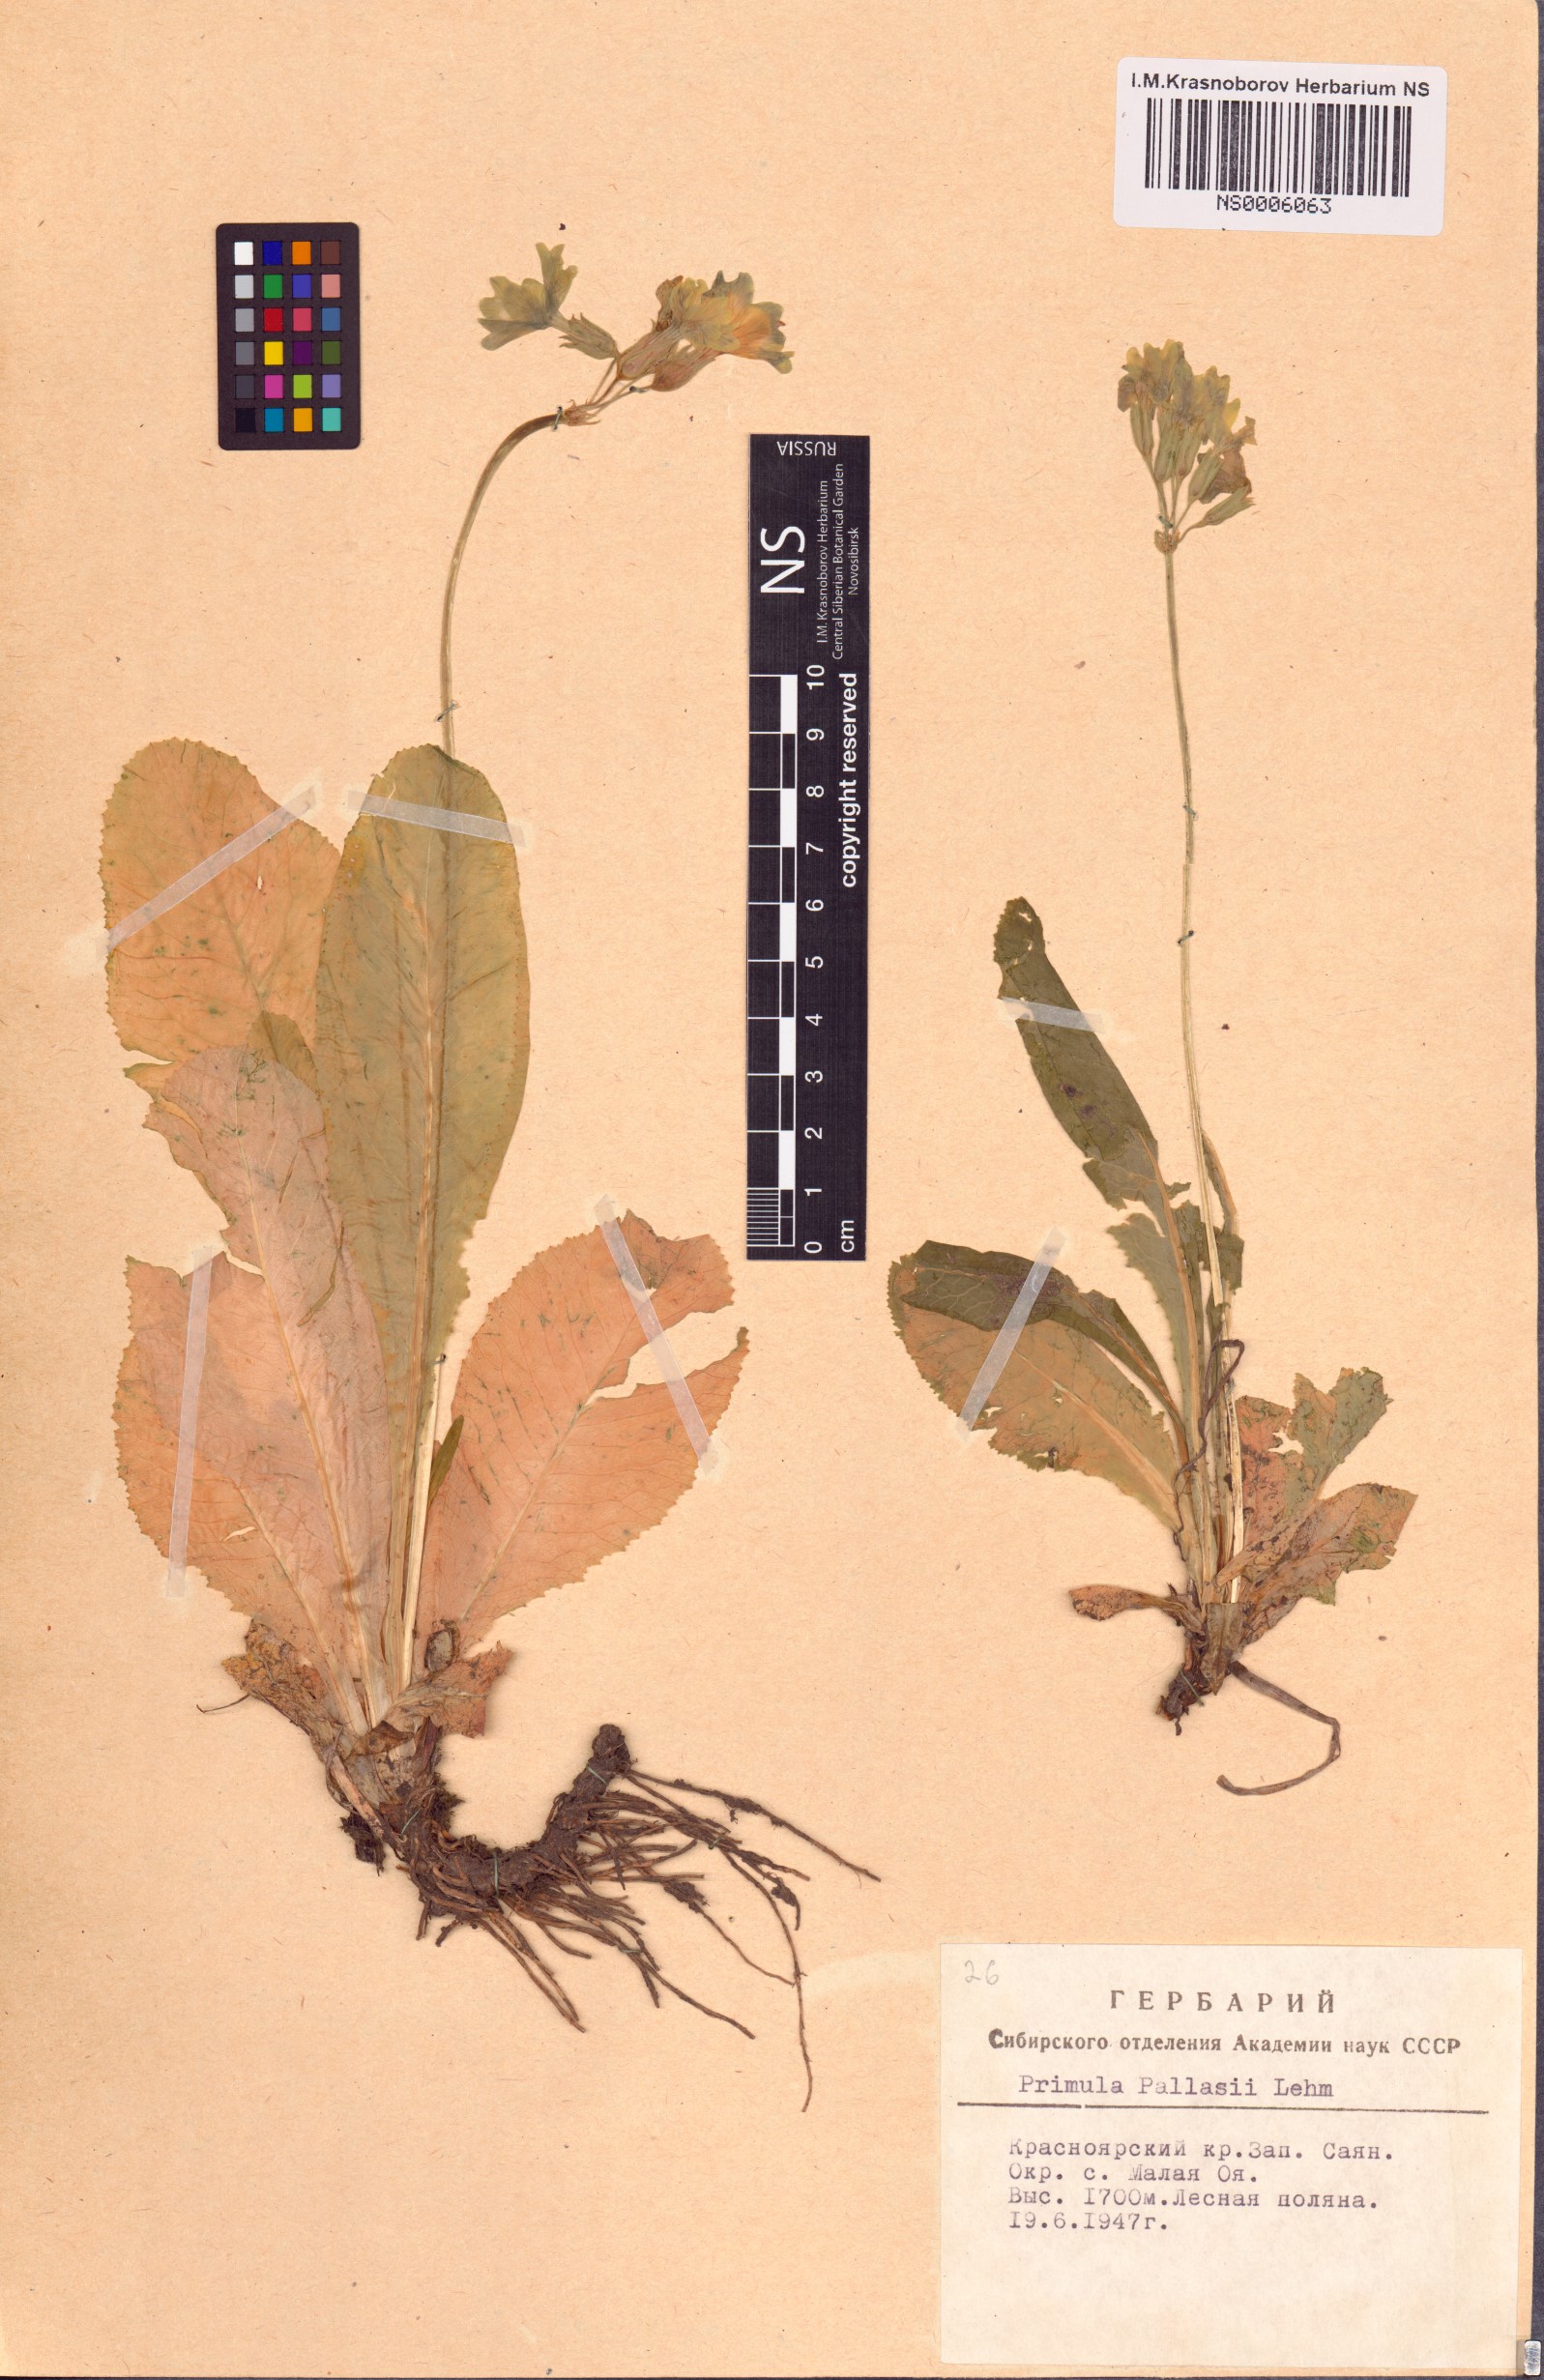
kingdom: Plantae
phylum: Tracheophyta
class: Magnoliopsida
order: Ericales
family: Primulaceae
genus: Primula
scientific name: Primula elatior
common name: Oxlip
